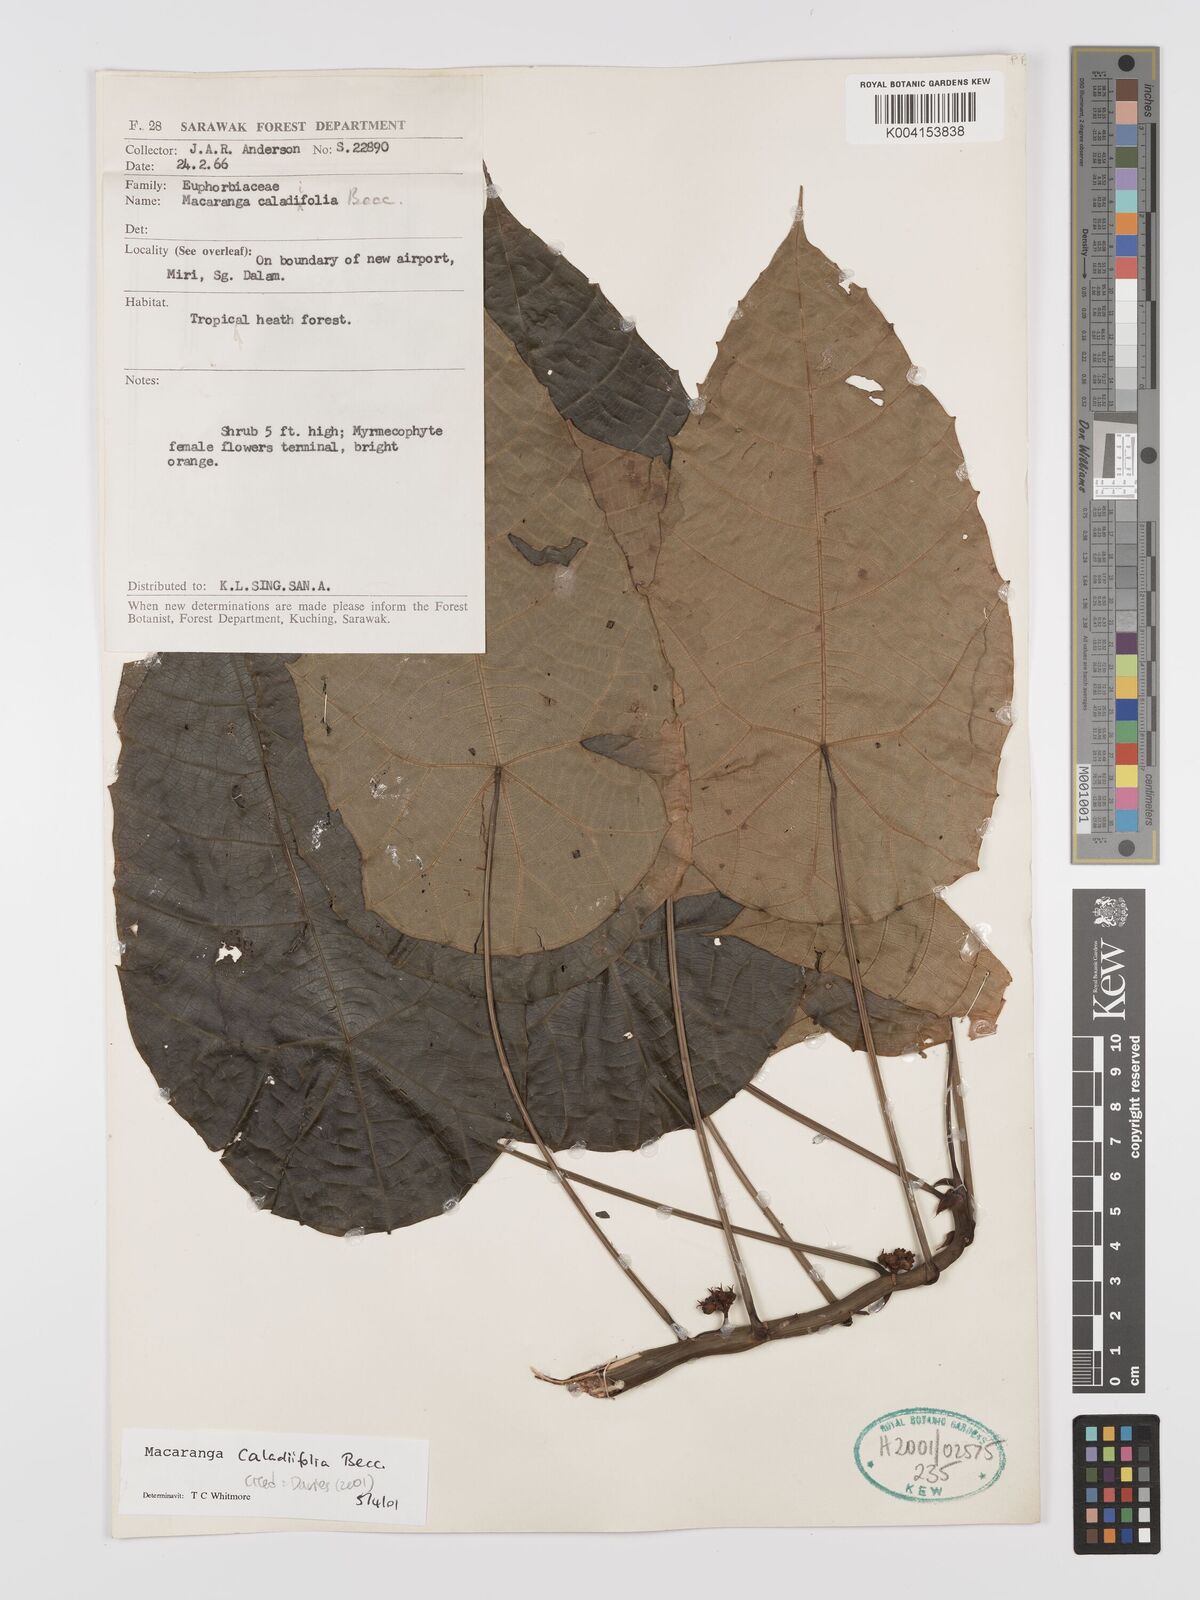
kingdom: Plantae
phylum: Tracheophyta
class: Magnoliopsida
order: Malpighiales
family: Euphorbiaceae
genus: Macaranga
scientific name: Macaranga caladiifolia
